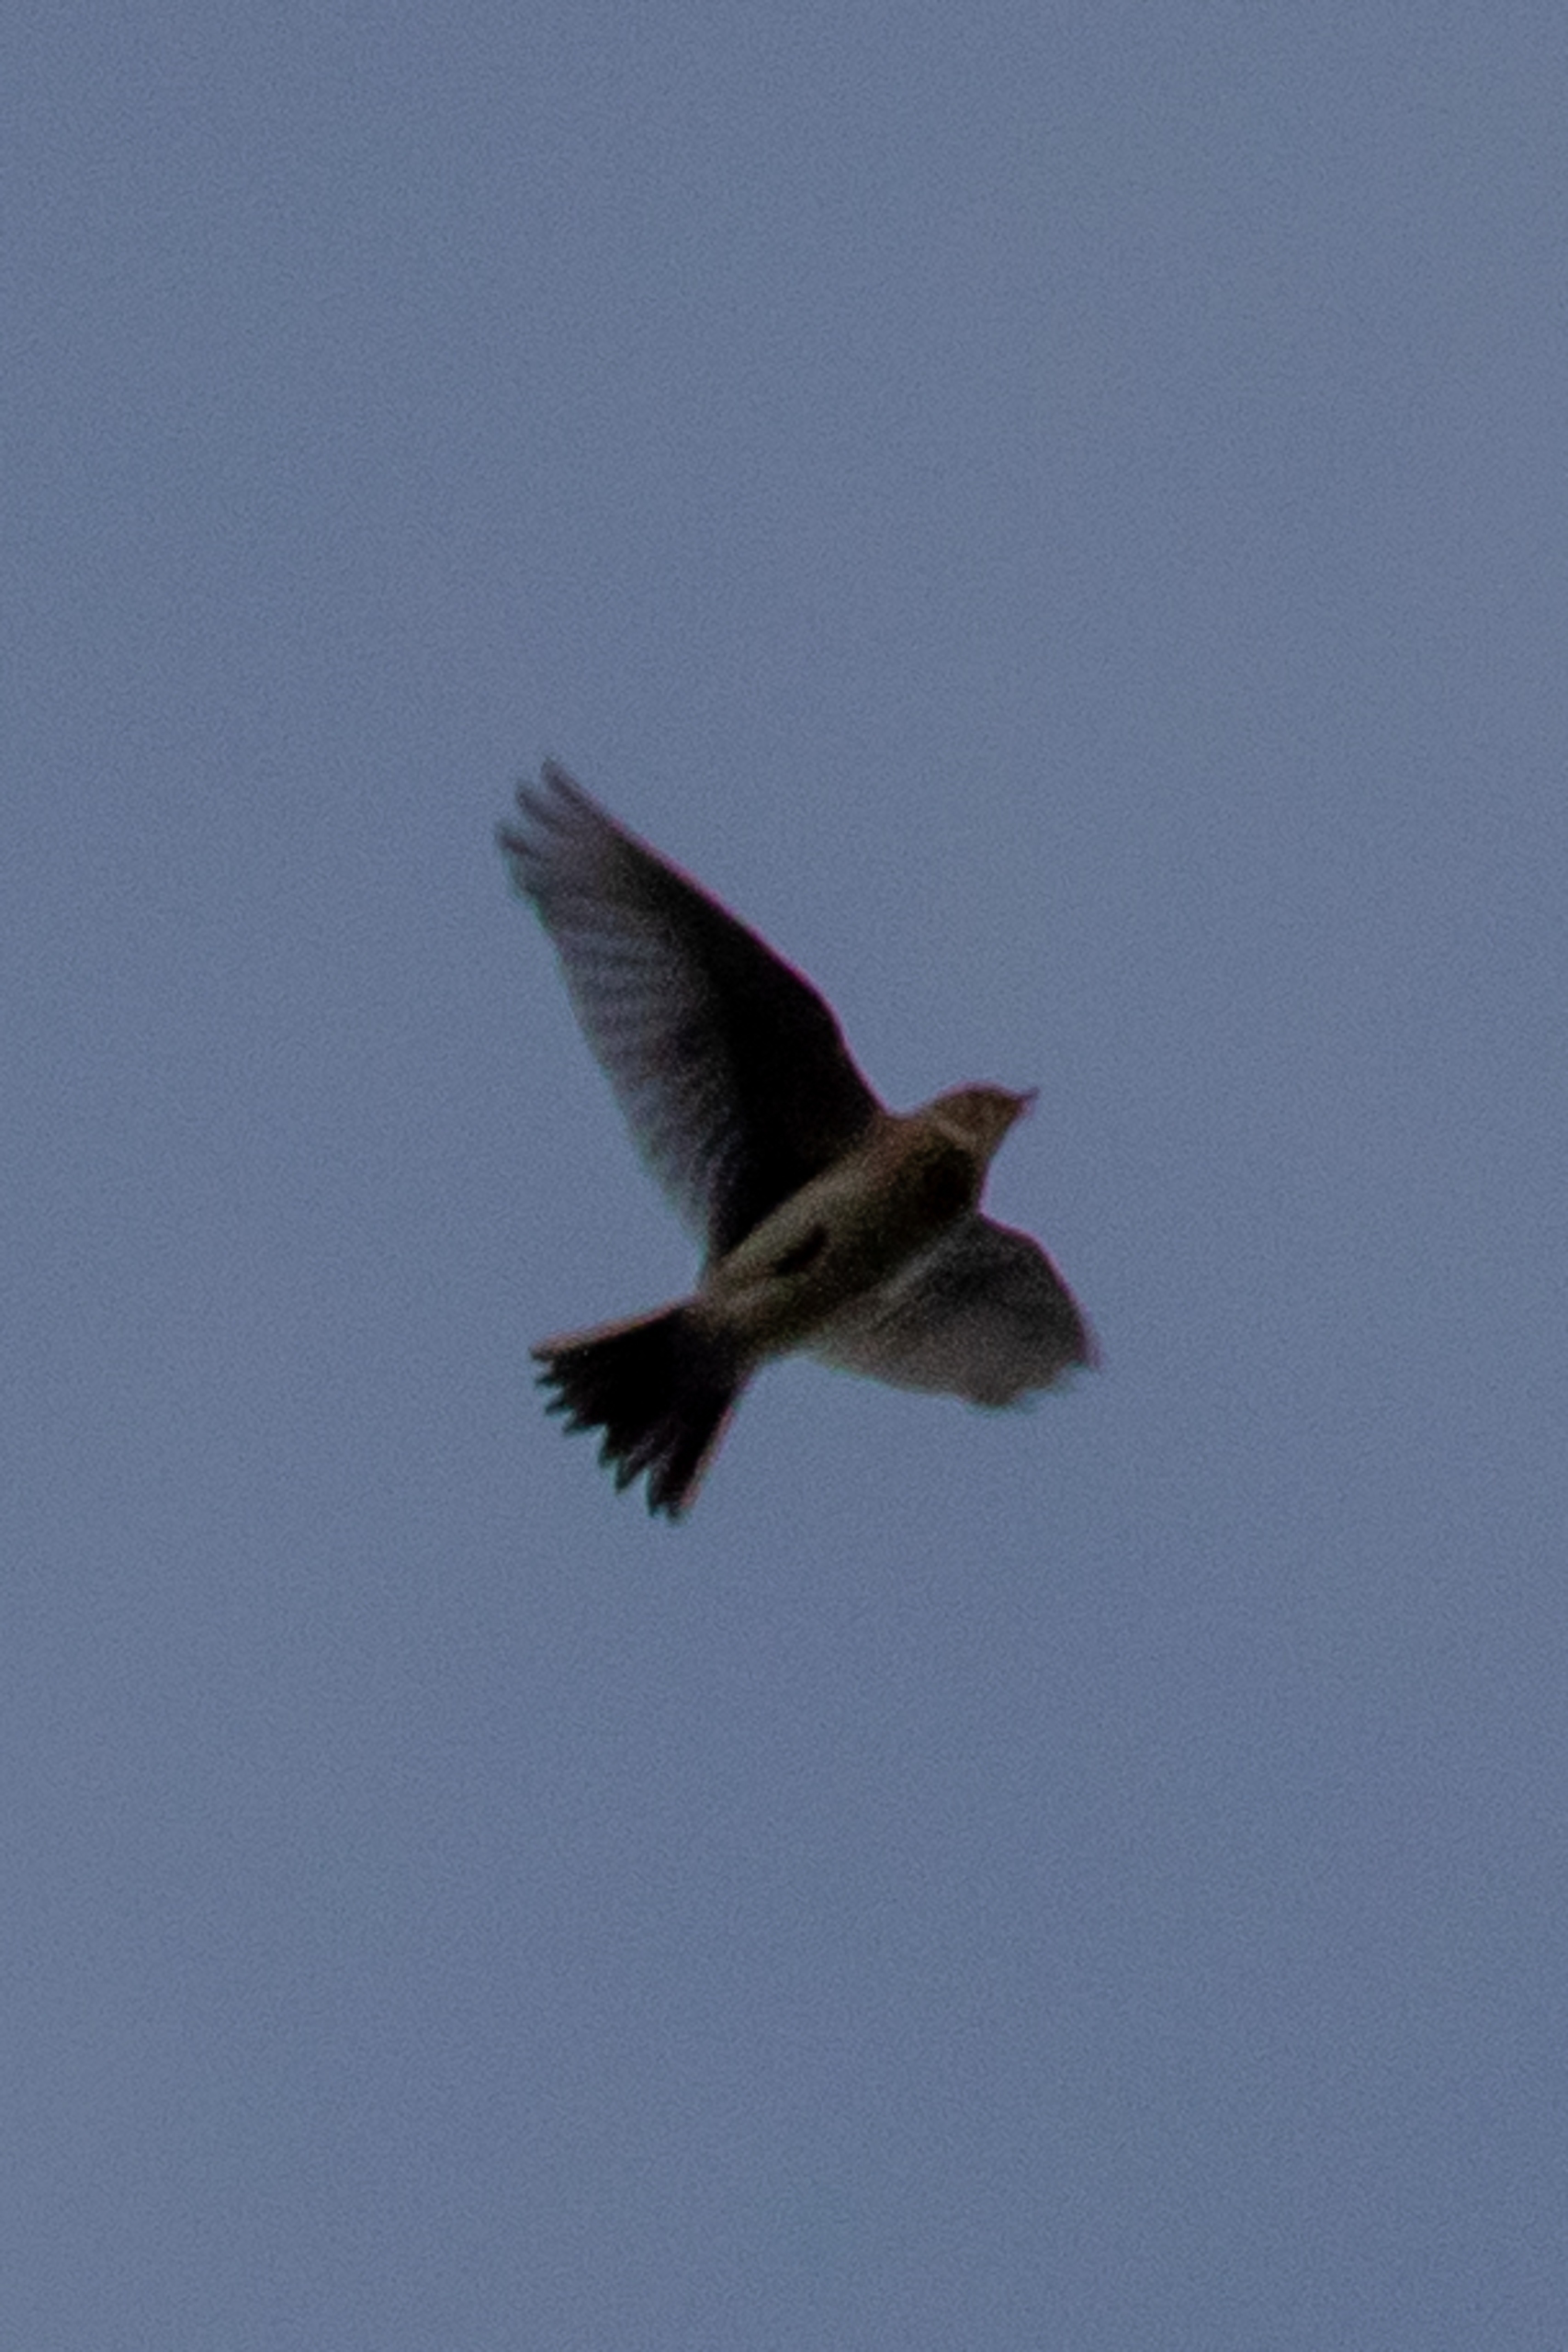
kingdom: Animalia
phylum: Chordata
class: Aves
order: Passeriformes
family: Alaudidae
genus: Alauda
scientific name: Alauda arvensis
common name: Sanglærke
